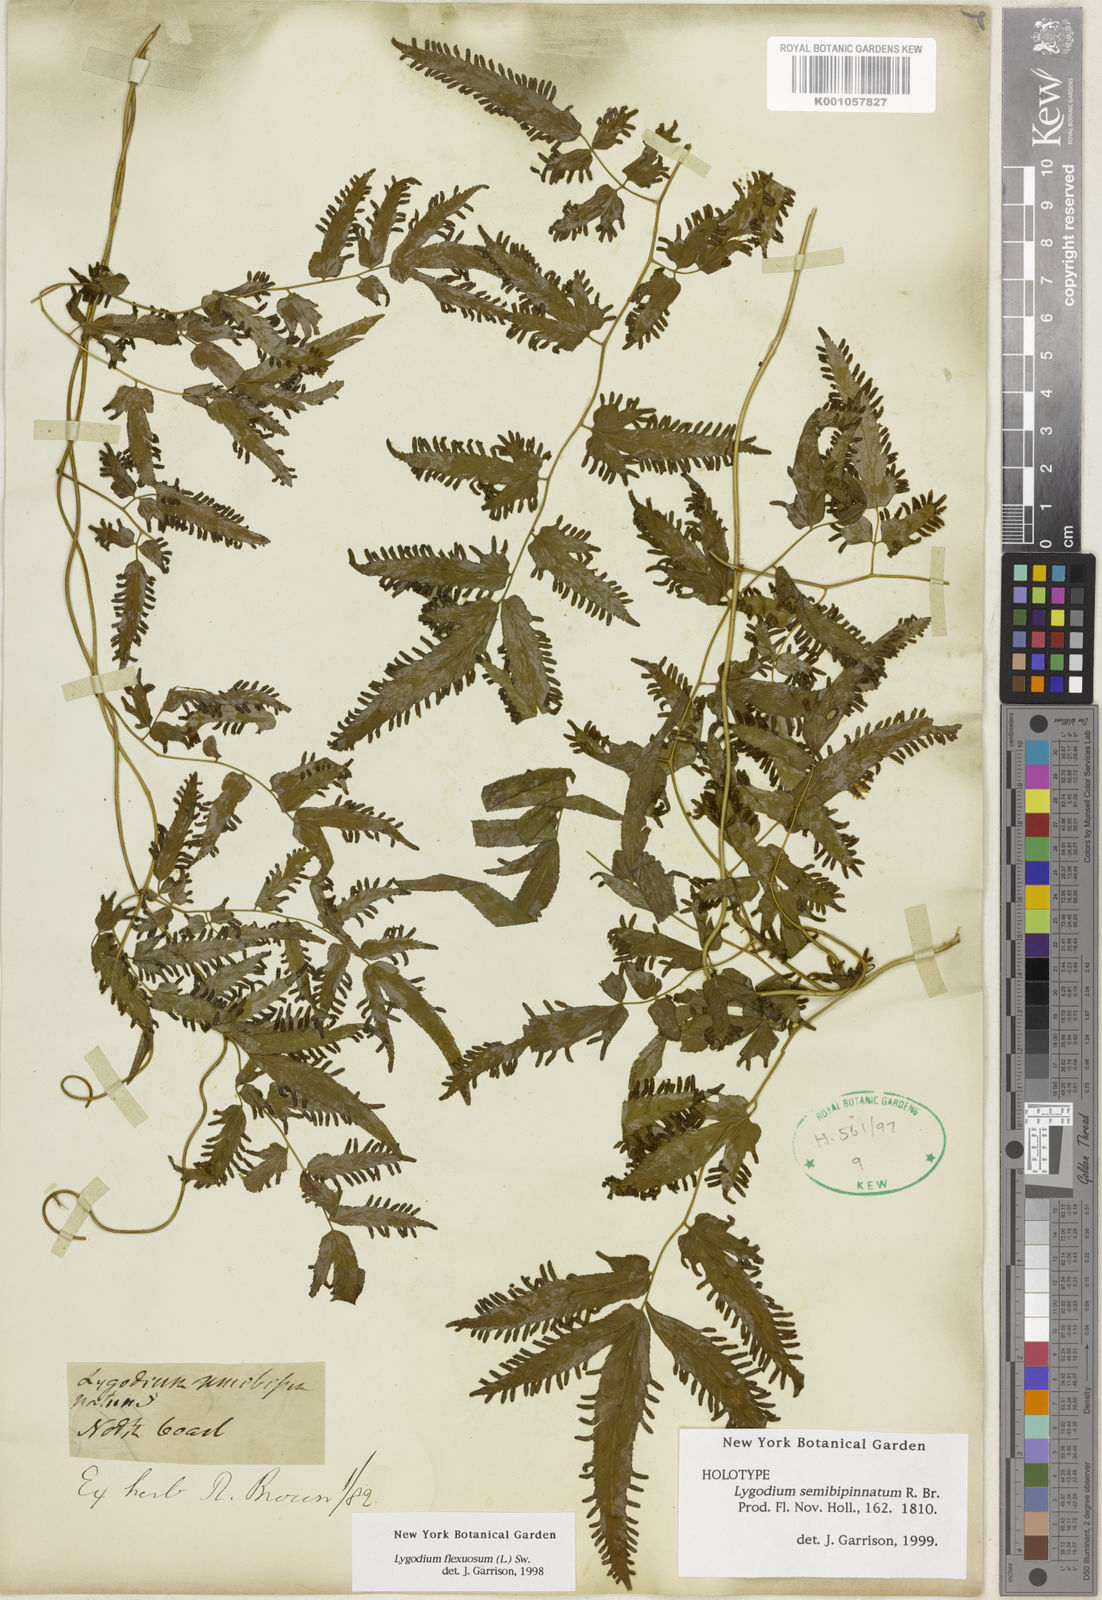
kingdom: Plantae
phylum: Tracheophyta
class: Polypodiopsida
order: Schizaeales
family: Lygodiaceae
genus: Lygodium
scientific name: Lygodium flexuosum
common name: Maidenhair creeper
